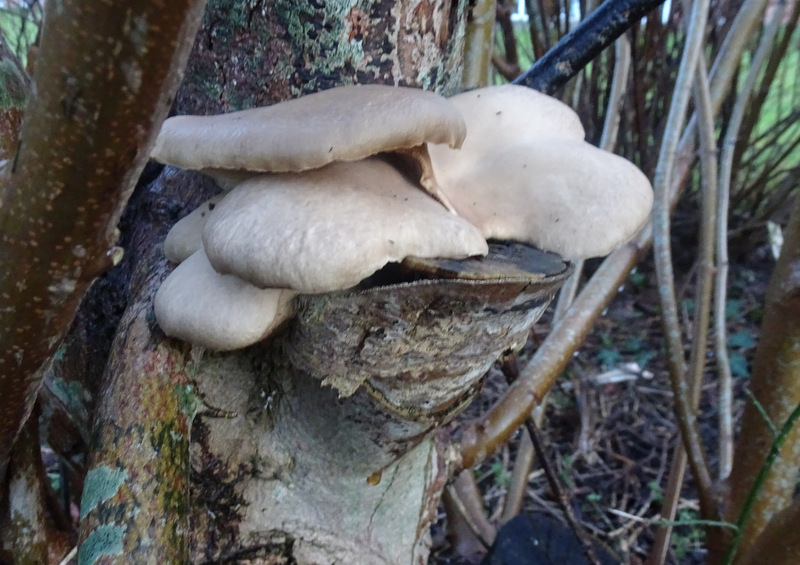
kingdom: Fungi
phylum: Basidiomycota
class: Agaricomycetes
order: Agaricales
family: Pleurotaceae
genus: Pleurotus
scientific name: Pleurotus ostreatus
